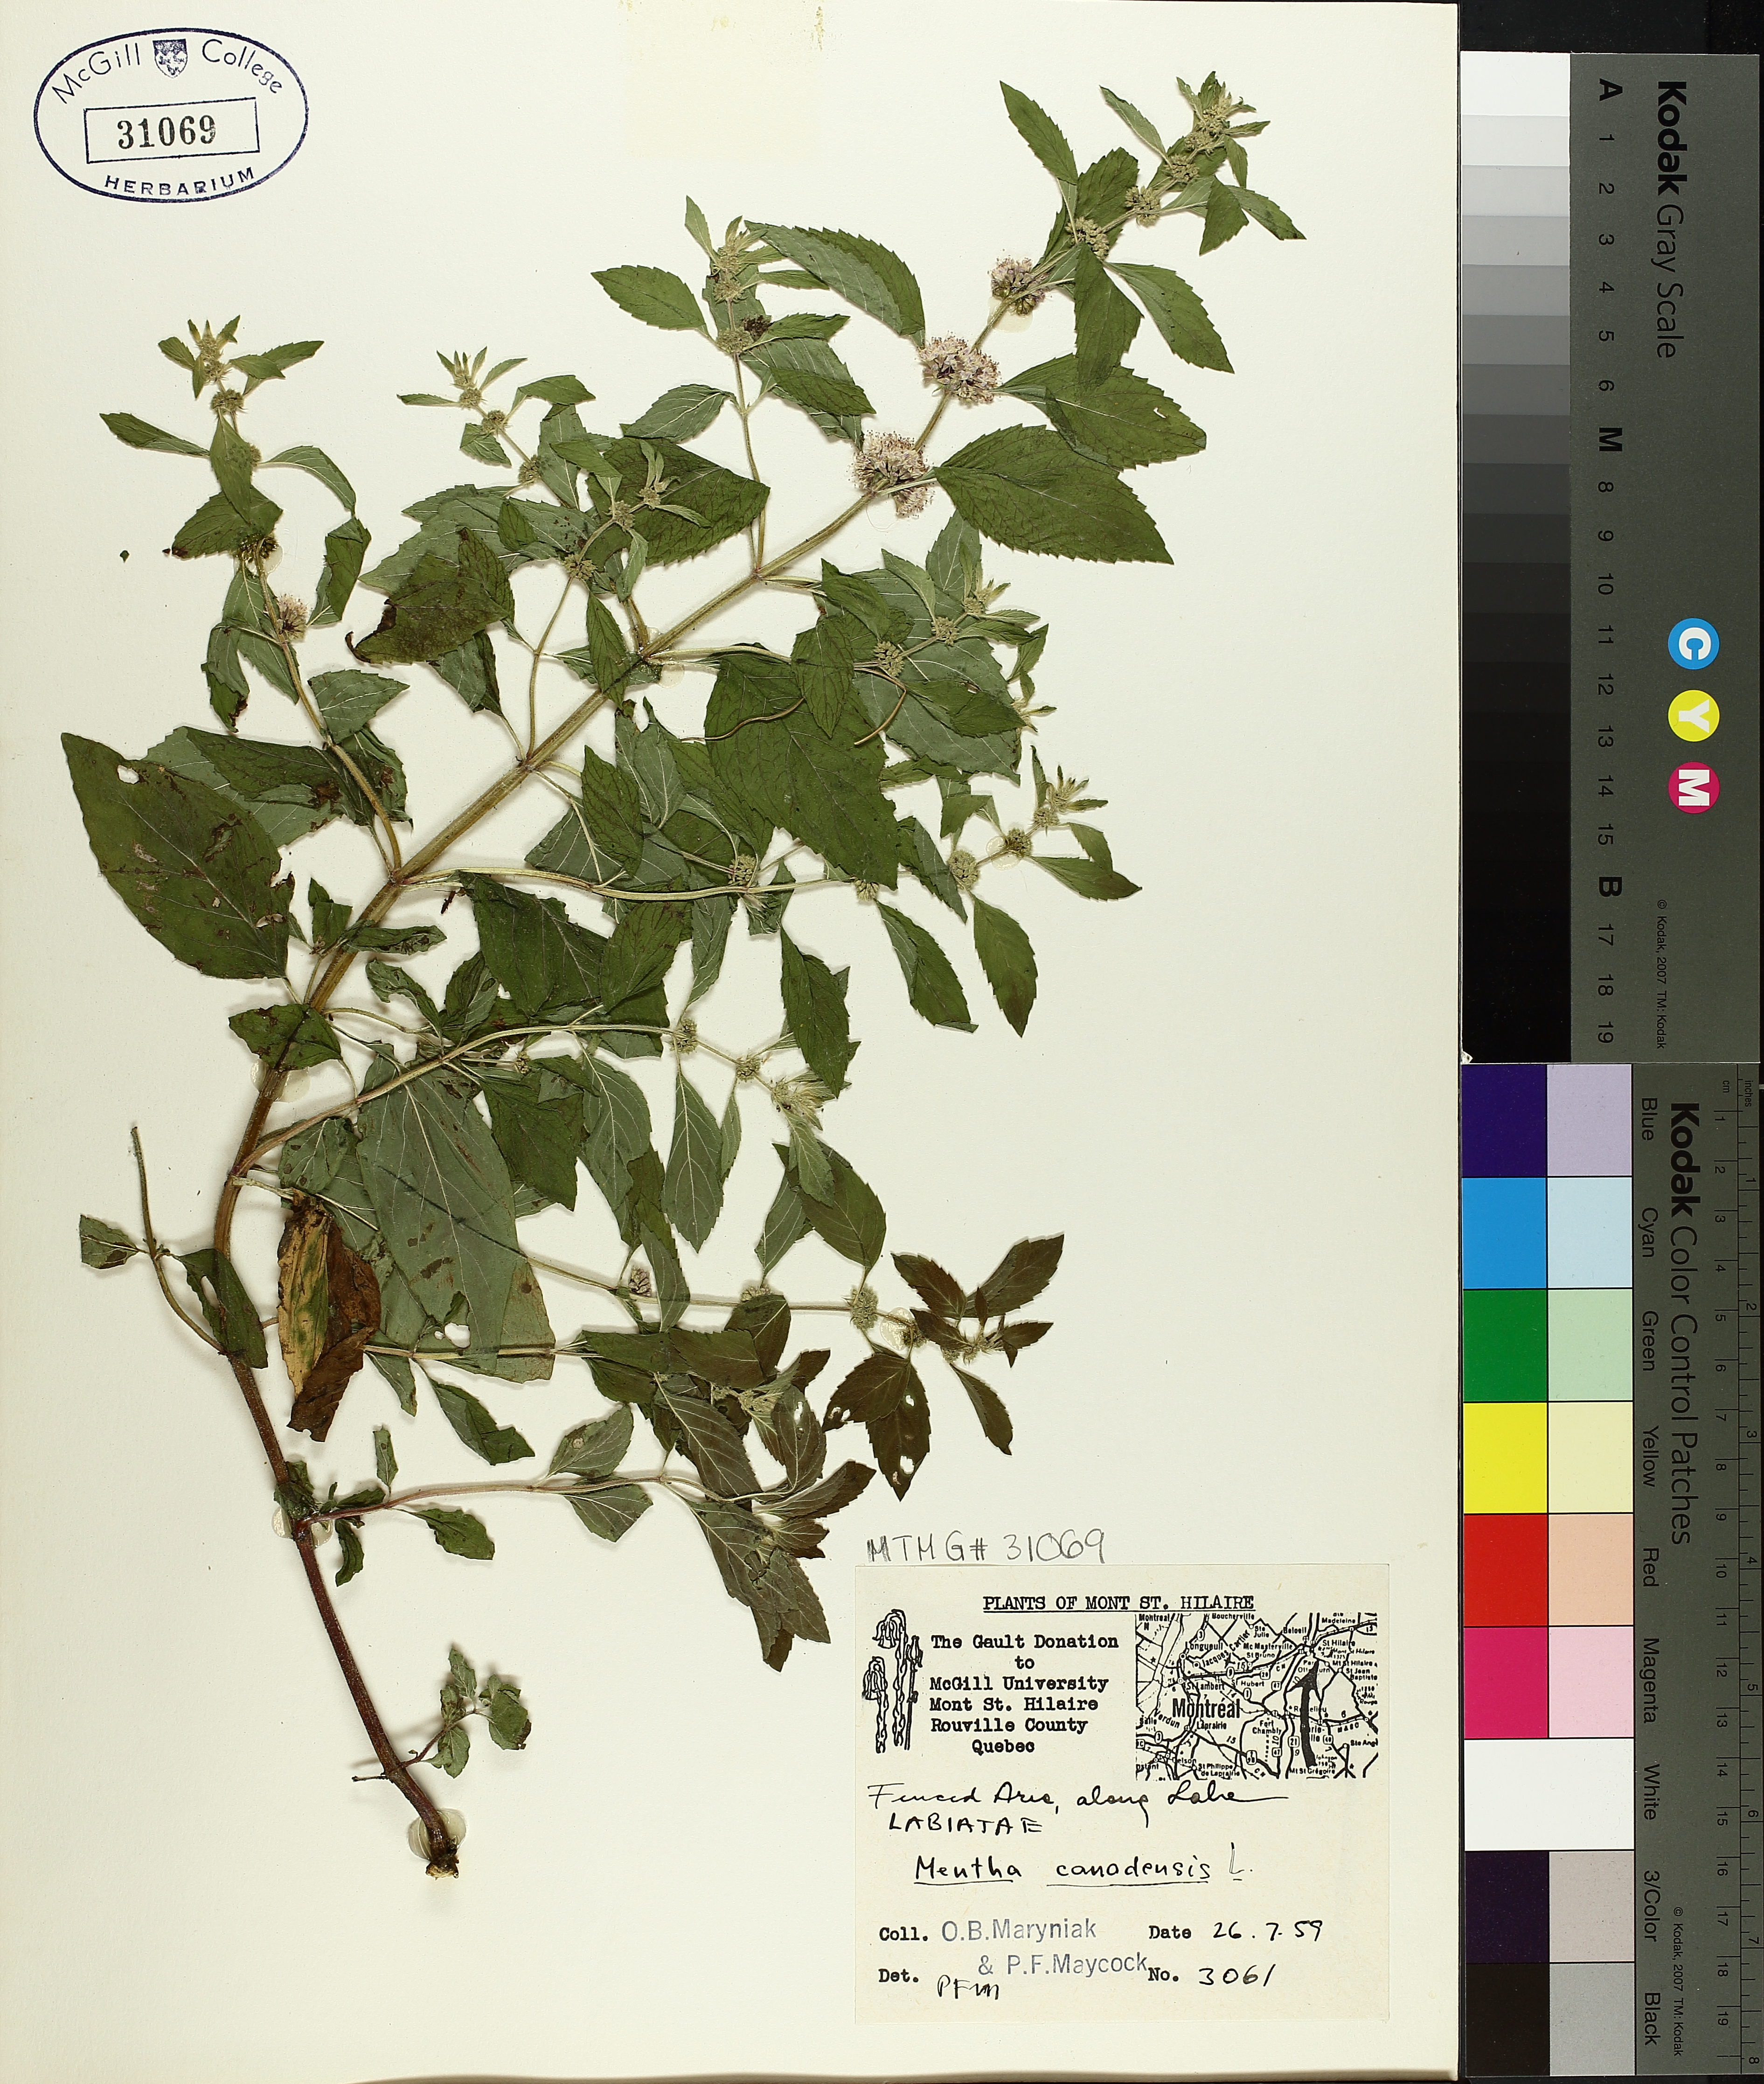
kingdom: Plantae
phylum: Tracheophyta
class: Magnoliopsida
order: Lamiales
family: Lamiaceae
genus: Mentha
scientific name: Mentha canadensis
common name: American corn mint
